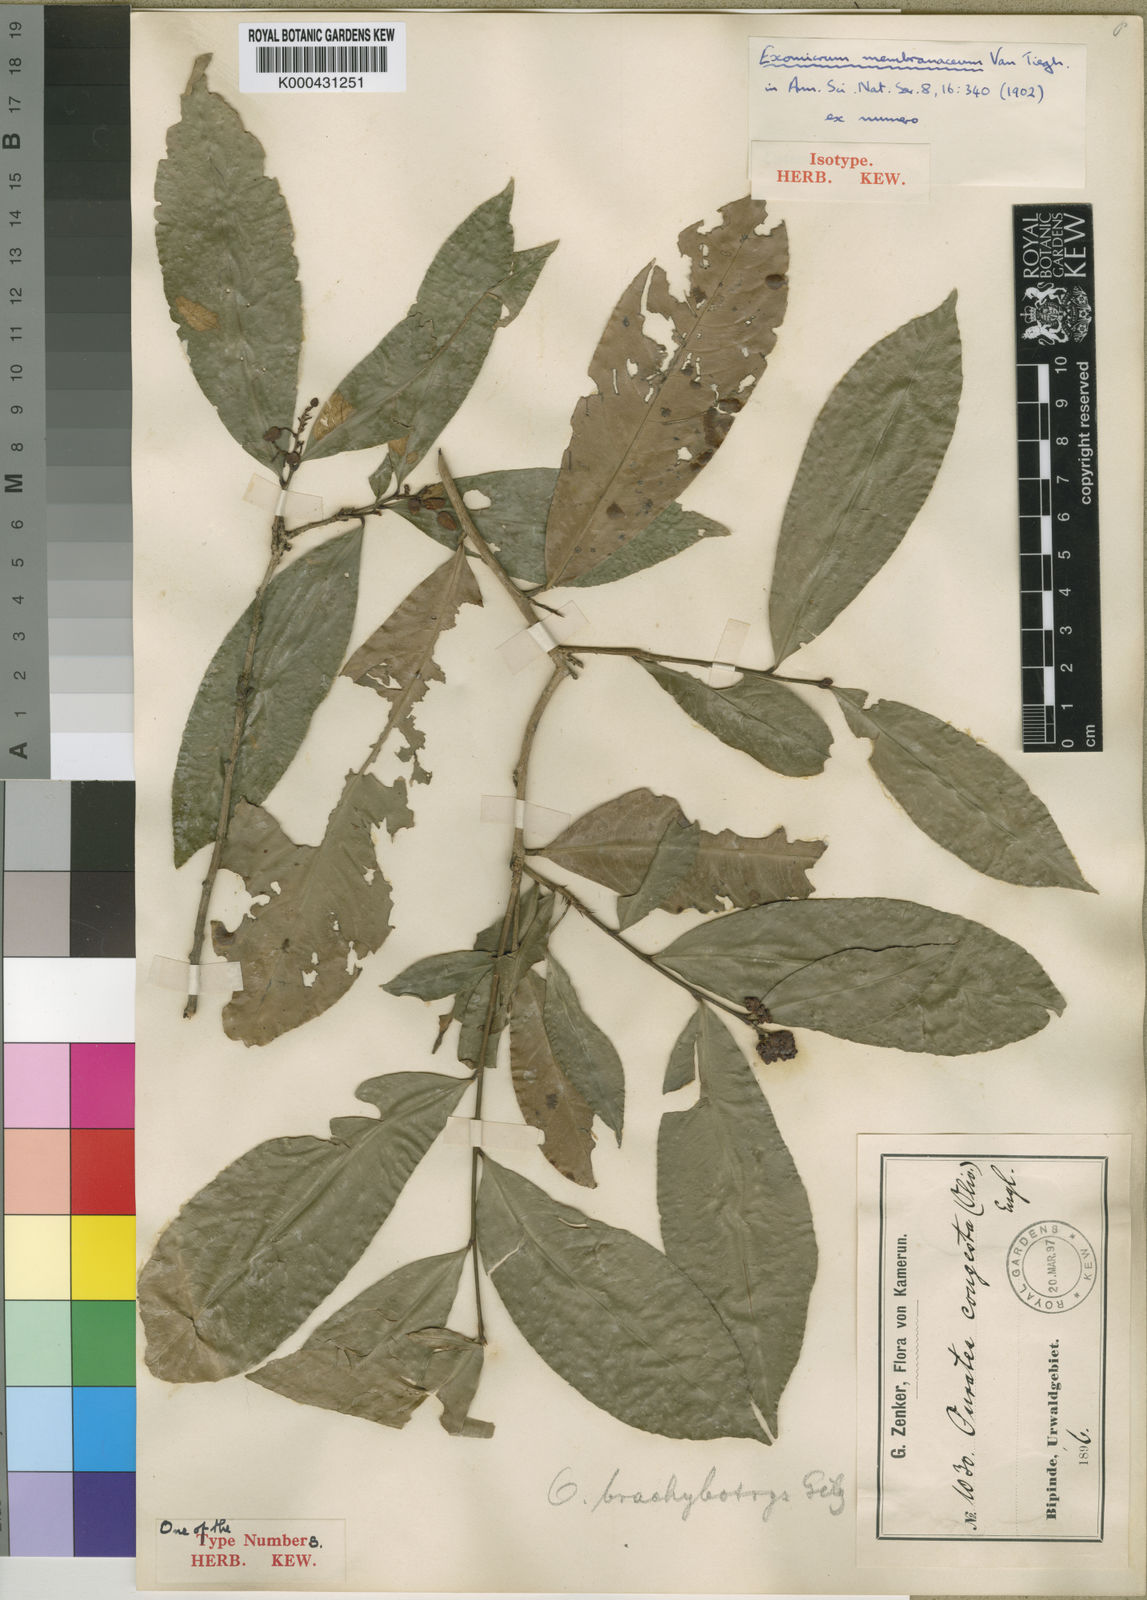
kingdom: Plantae
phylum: Tracheophyta
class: Magnoliopsida
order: Malpighiales
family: Ochnaceae
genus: Campylospermum
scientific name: Campylospermum glaucum
